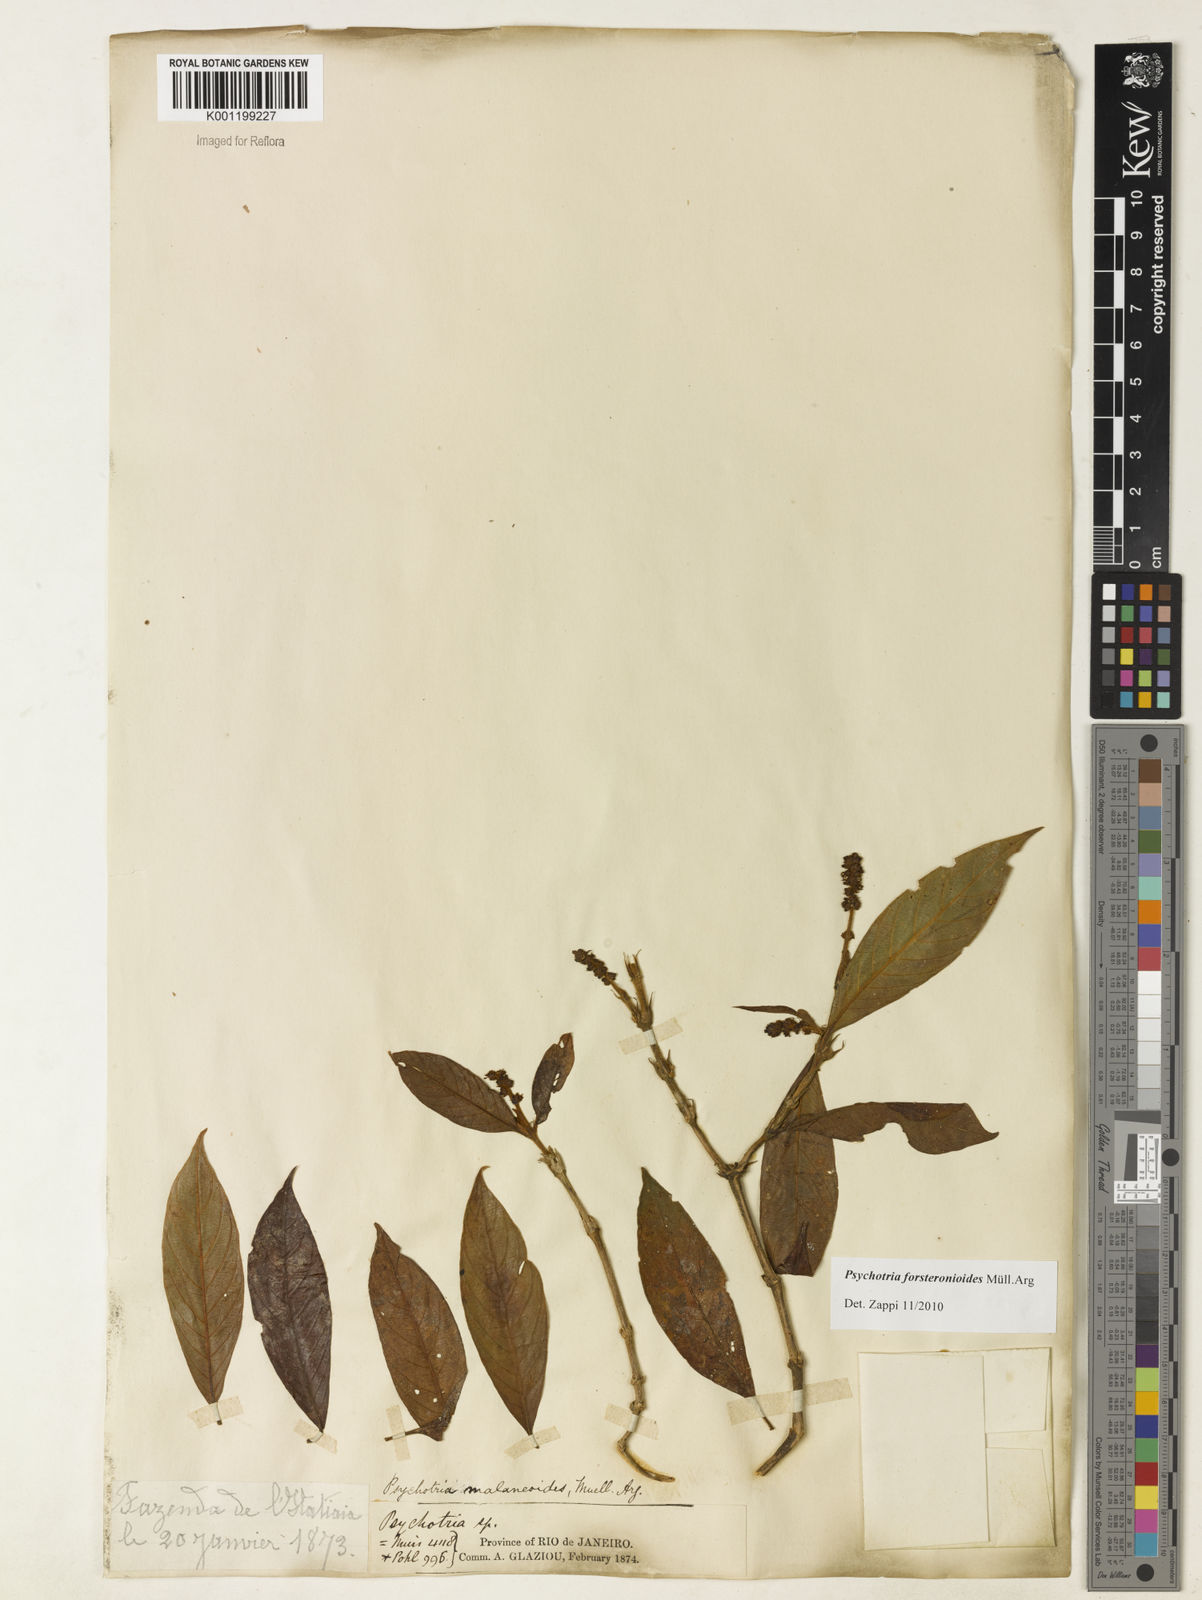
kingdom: Plantae
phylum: Tracheophyta
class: Magnoliopsida
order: Gentianales
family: Rubiaceae
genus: Psychotria
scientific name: Psychotria
